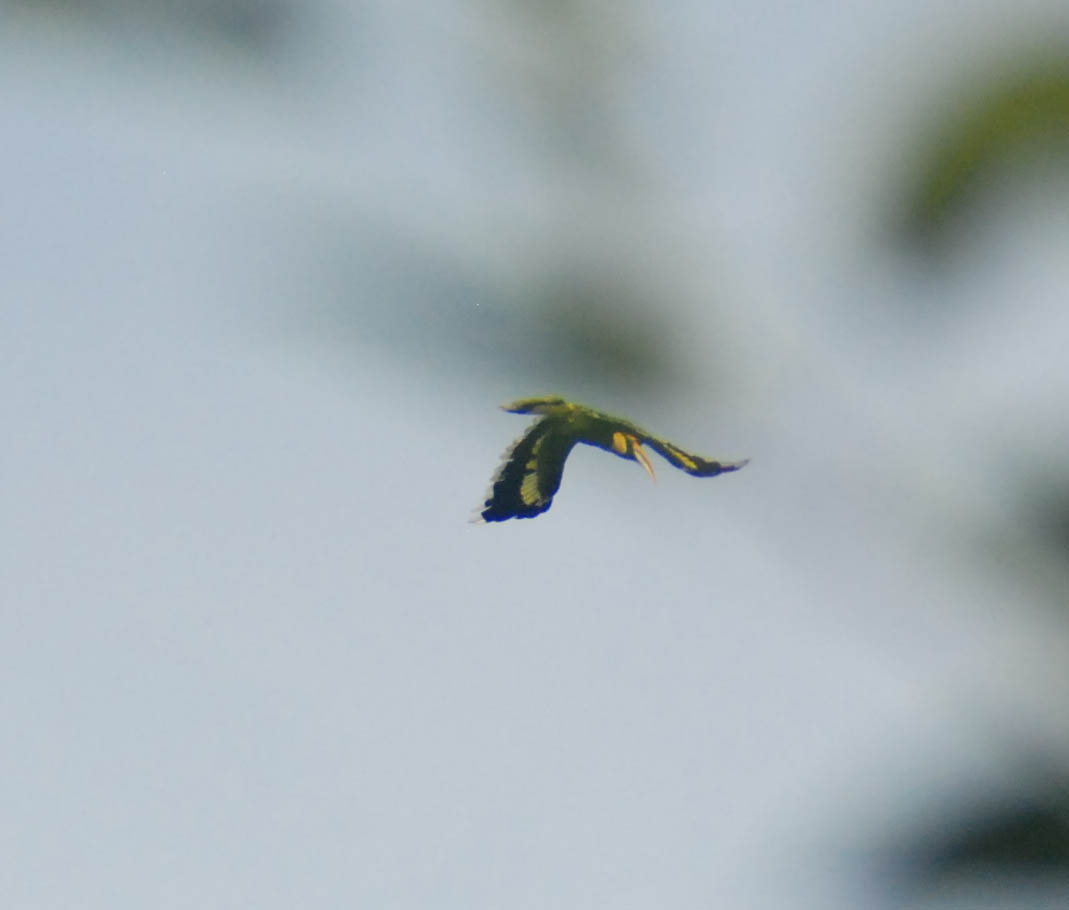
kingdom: Animalia
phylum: Chordata
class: Aves
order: Bucerotiformes
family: Bucerotidae
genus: Buceros
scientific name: Buceros bicornis
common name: Great hornbill
